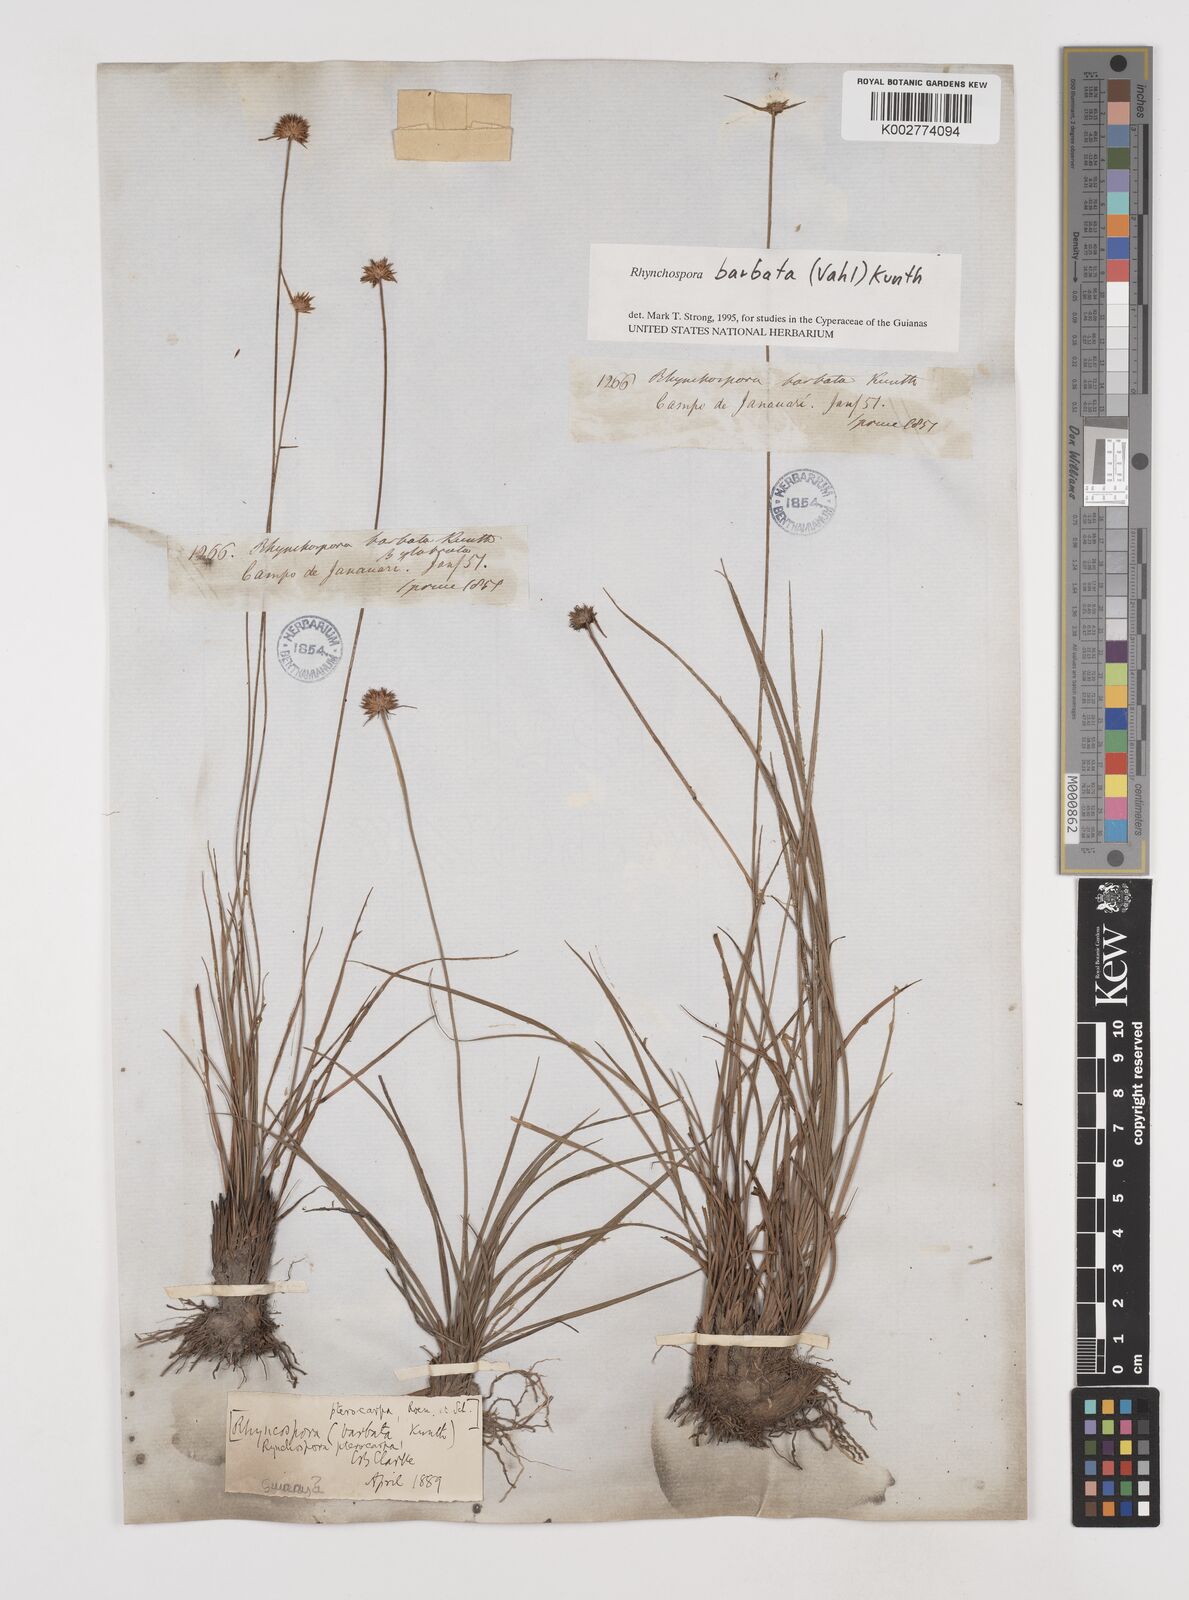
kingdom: Plantae
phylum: Tracheophyta
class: Liliopsida
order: Poales
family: Cyperaceae
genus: Rhynchospora
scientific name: Rhynchospora barbata
